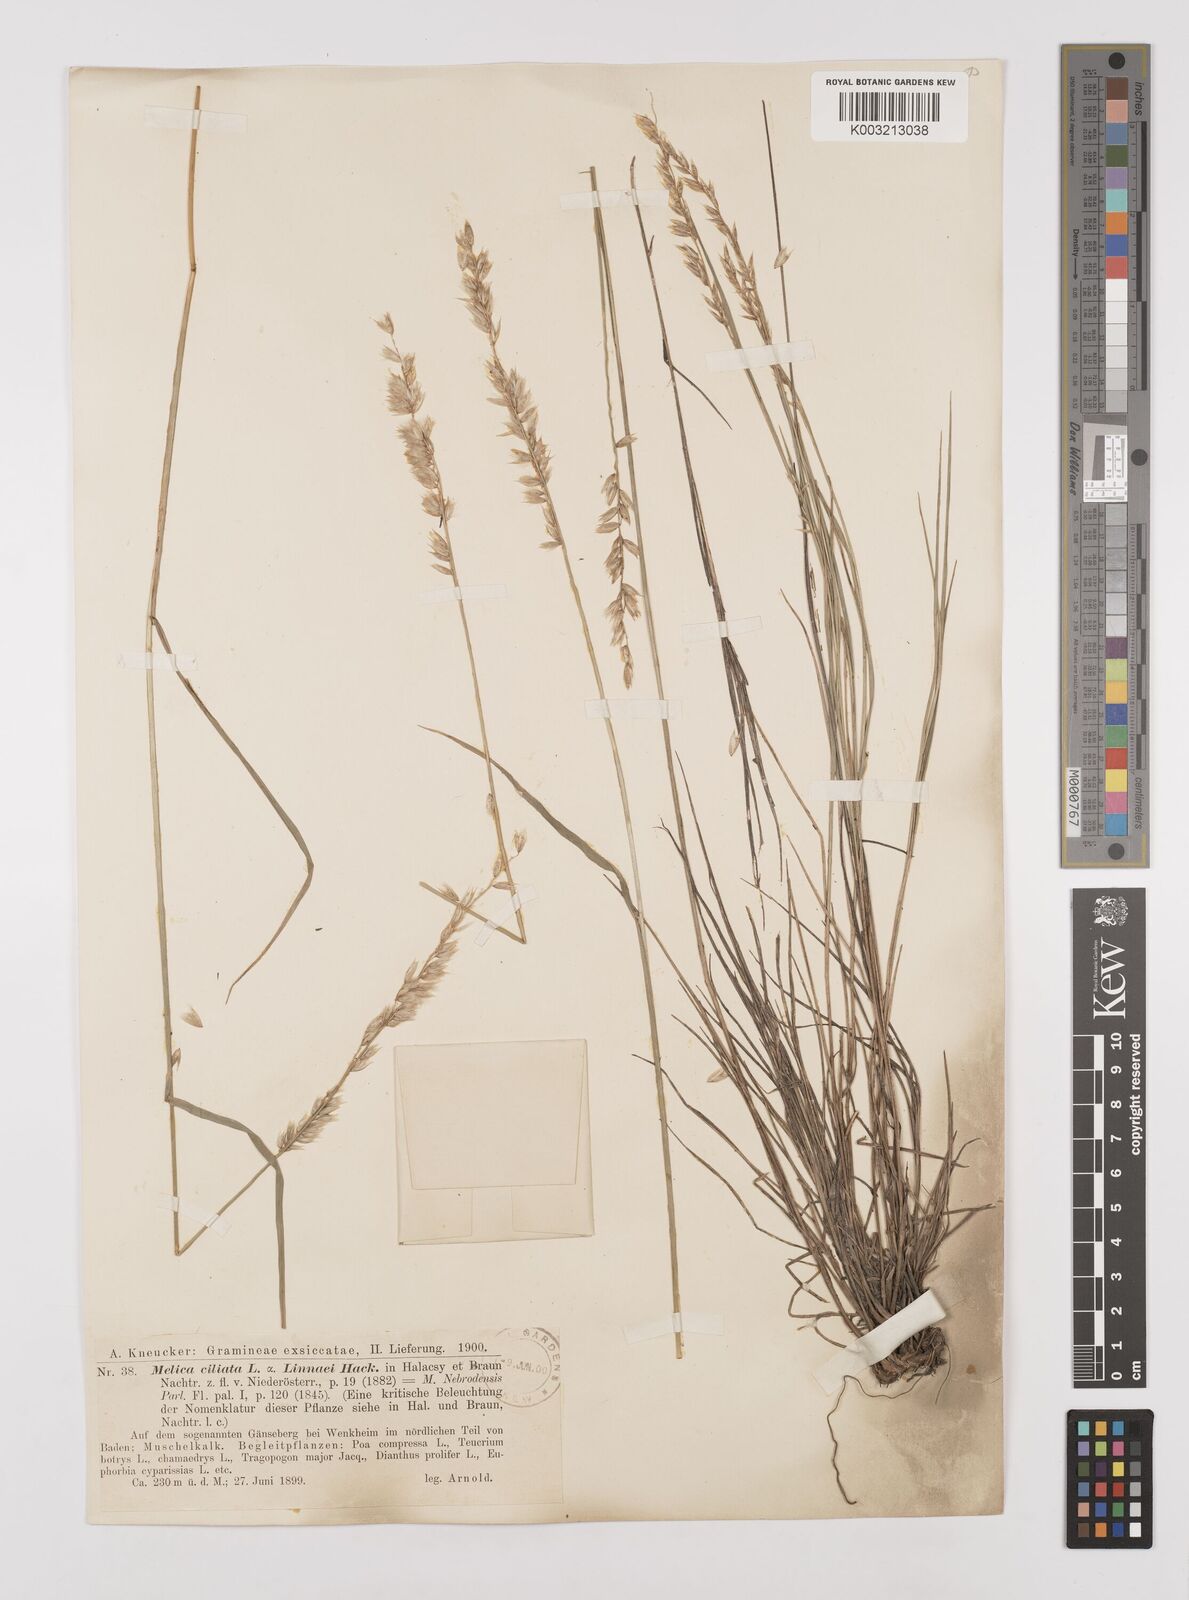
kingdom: Plantae
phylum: Tracheophyta
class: Liliopsida
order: Poales
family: Poaceae
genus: Melica
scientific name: Melica ciliata
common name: Hairy melicgrass
